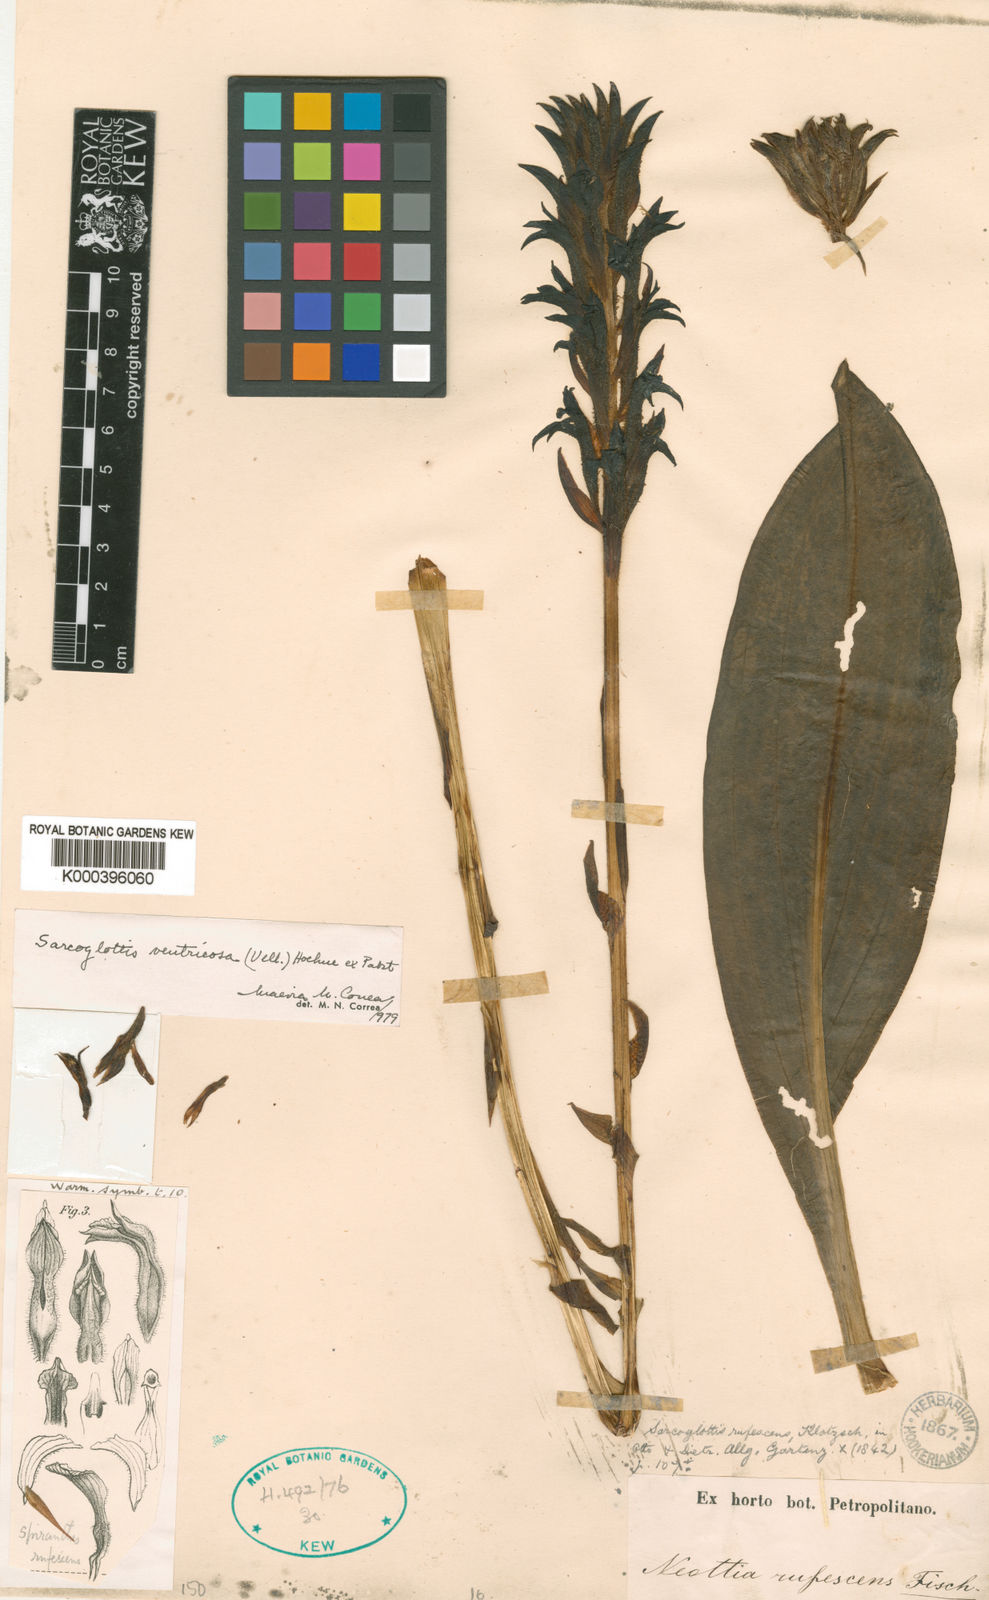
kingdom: Plantae
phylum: Tracheophyta
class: Liliopsida
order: Asparagales
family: Orchidaceae
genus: Sarcoglottis
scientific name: Sarcoglottis ventricosa
